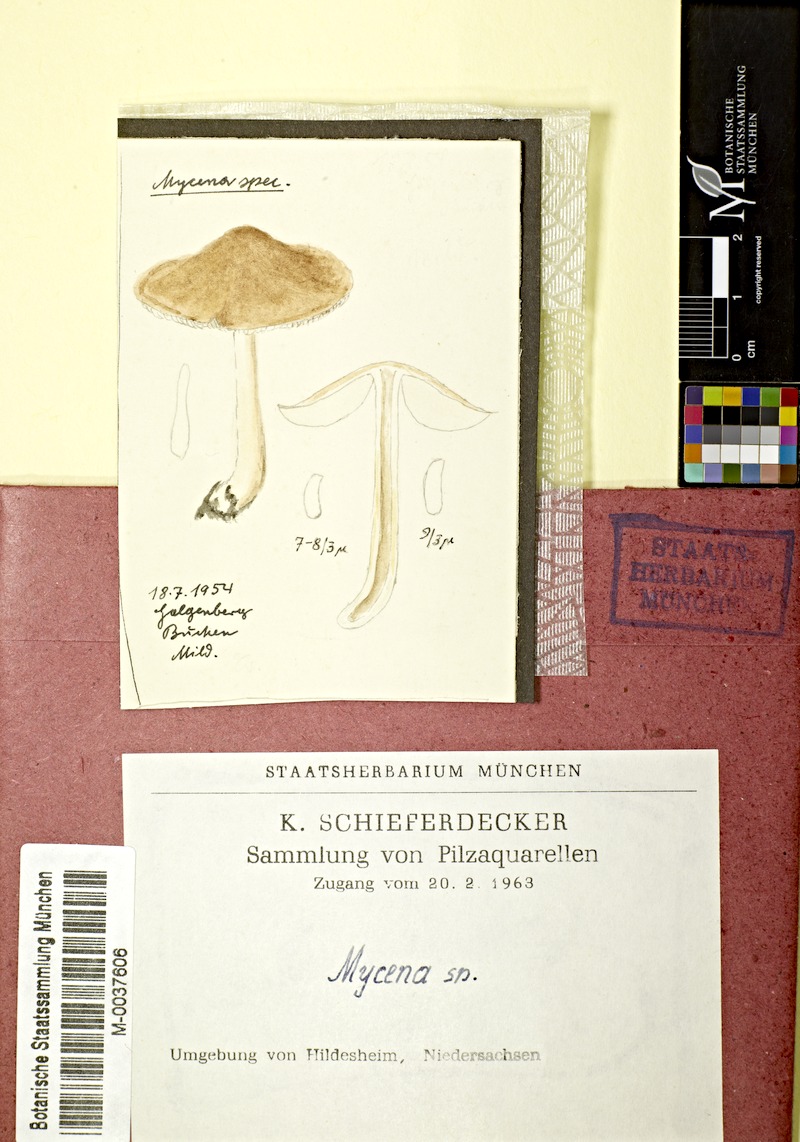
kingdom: Fungi
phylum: Basidiomycota
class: Agaricomycetes
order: Agaricales
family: Mycenaceae
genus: Mycena
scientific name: Mycena
